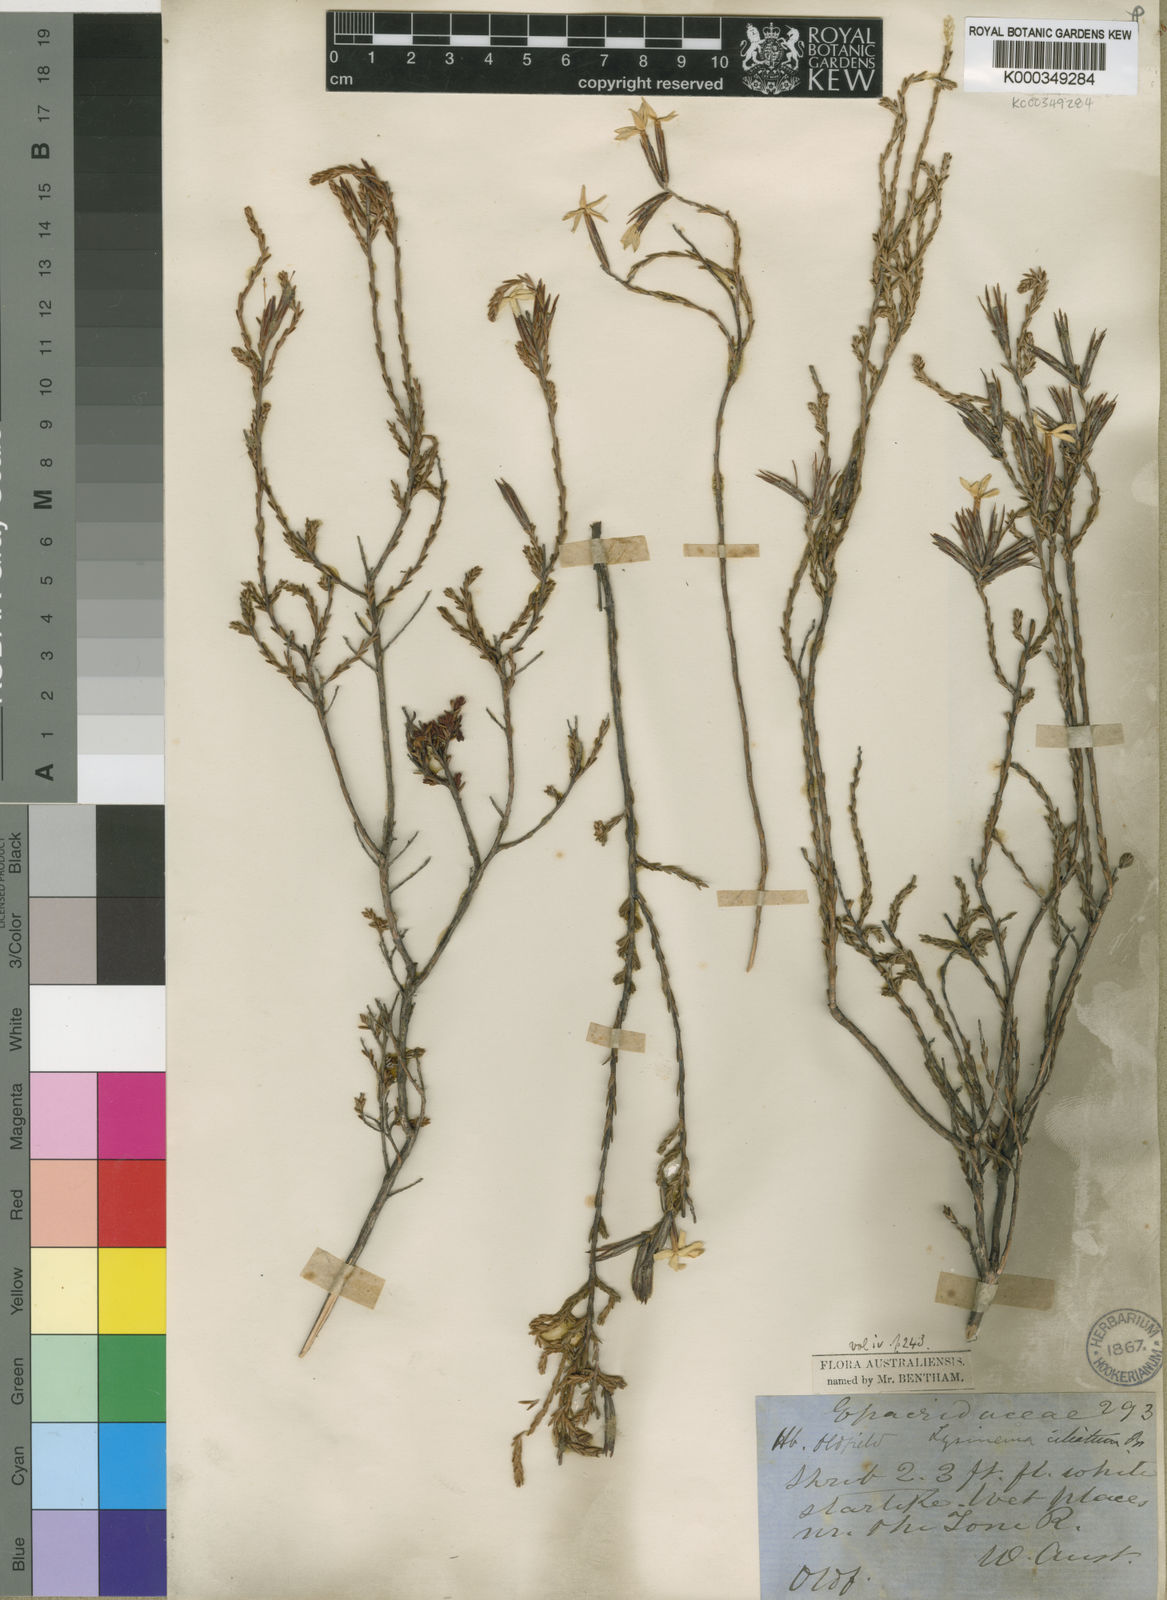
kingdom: Plantae
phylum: Tracheophyta
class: Magnoliopsida
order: Ericales
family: Ericaceae
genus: Lysinema
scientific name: Lysinema ciliatum
